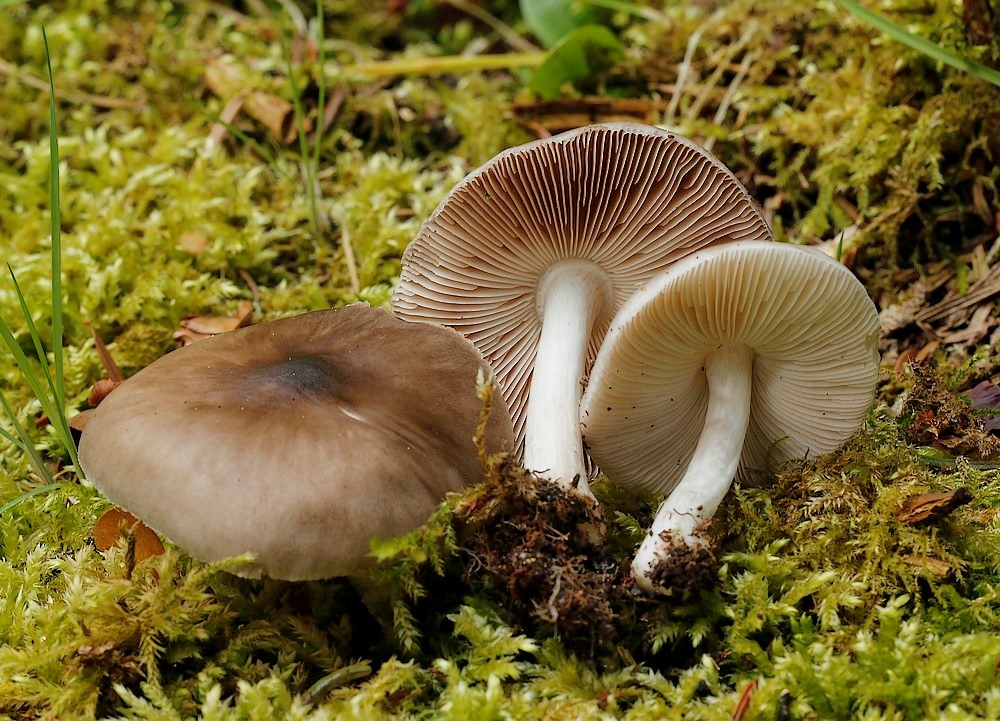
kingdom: Fungi
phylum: Basidiomycota
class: Agaricomycetes
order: Agaricales
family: Pluteaceae
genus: Pluteus
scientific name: Pluteus primus
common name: tidlig skærmhat
